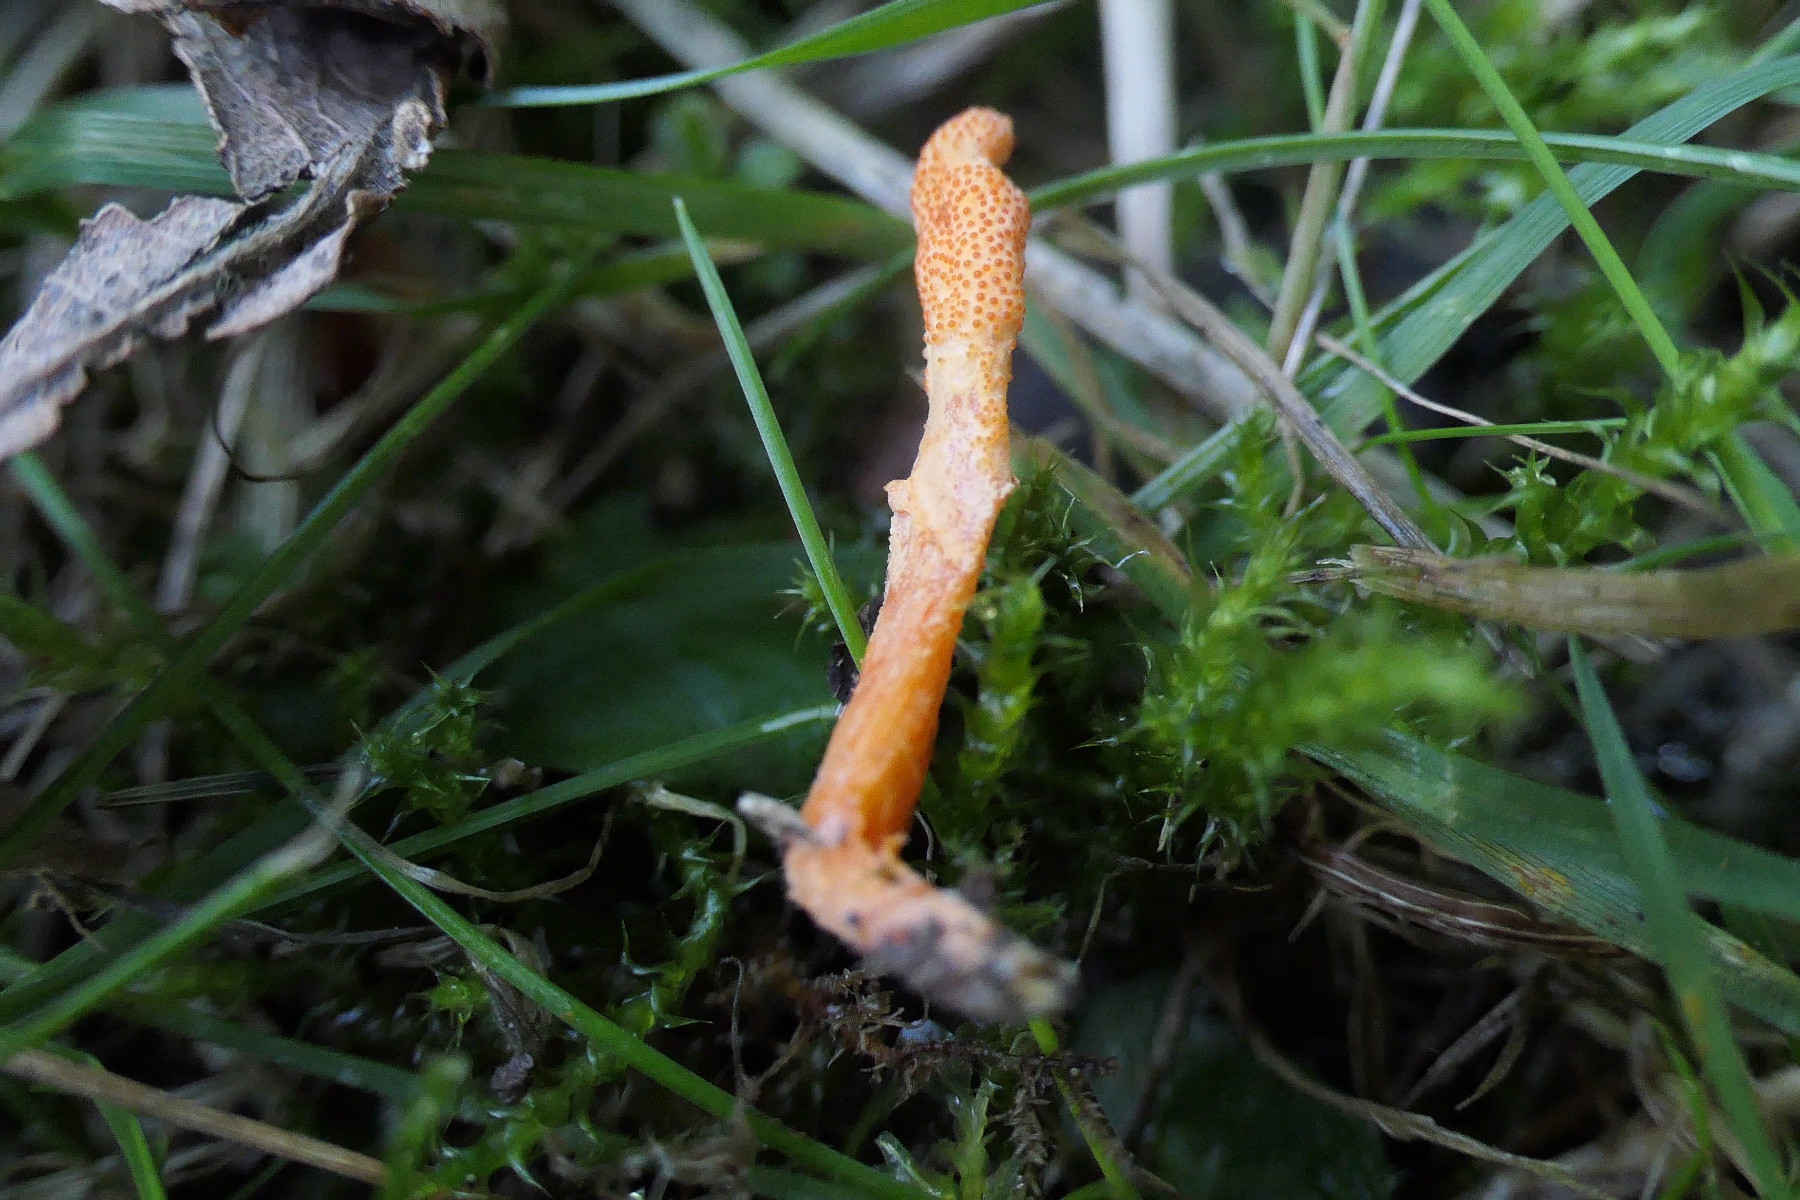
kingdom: Fungi
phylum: Ascomycota
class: Sordariomycetes
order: Hypocreales
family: Cordycipitaceae
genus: Cordyceps
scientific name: Cordyceps militaris
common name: puppe-snyltekølle
